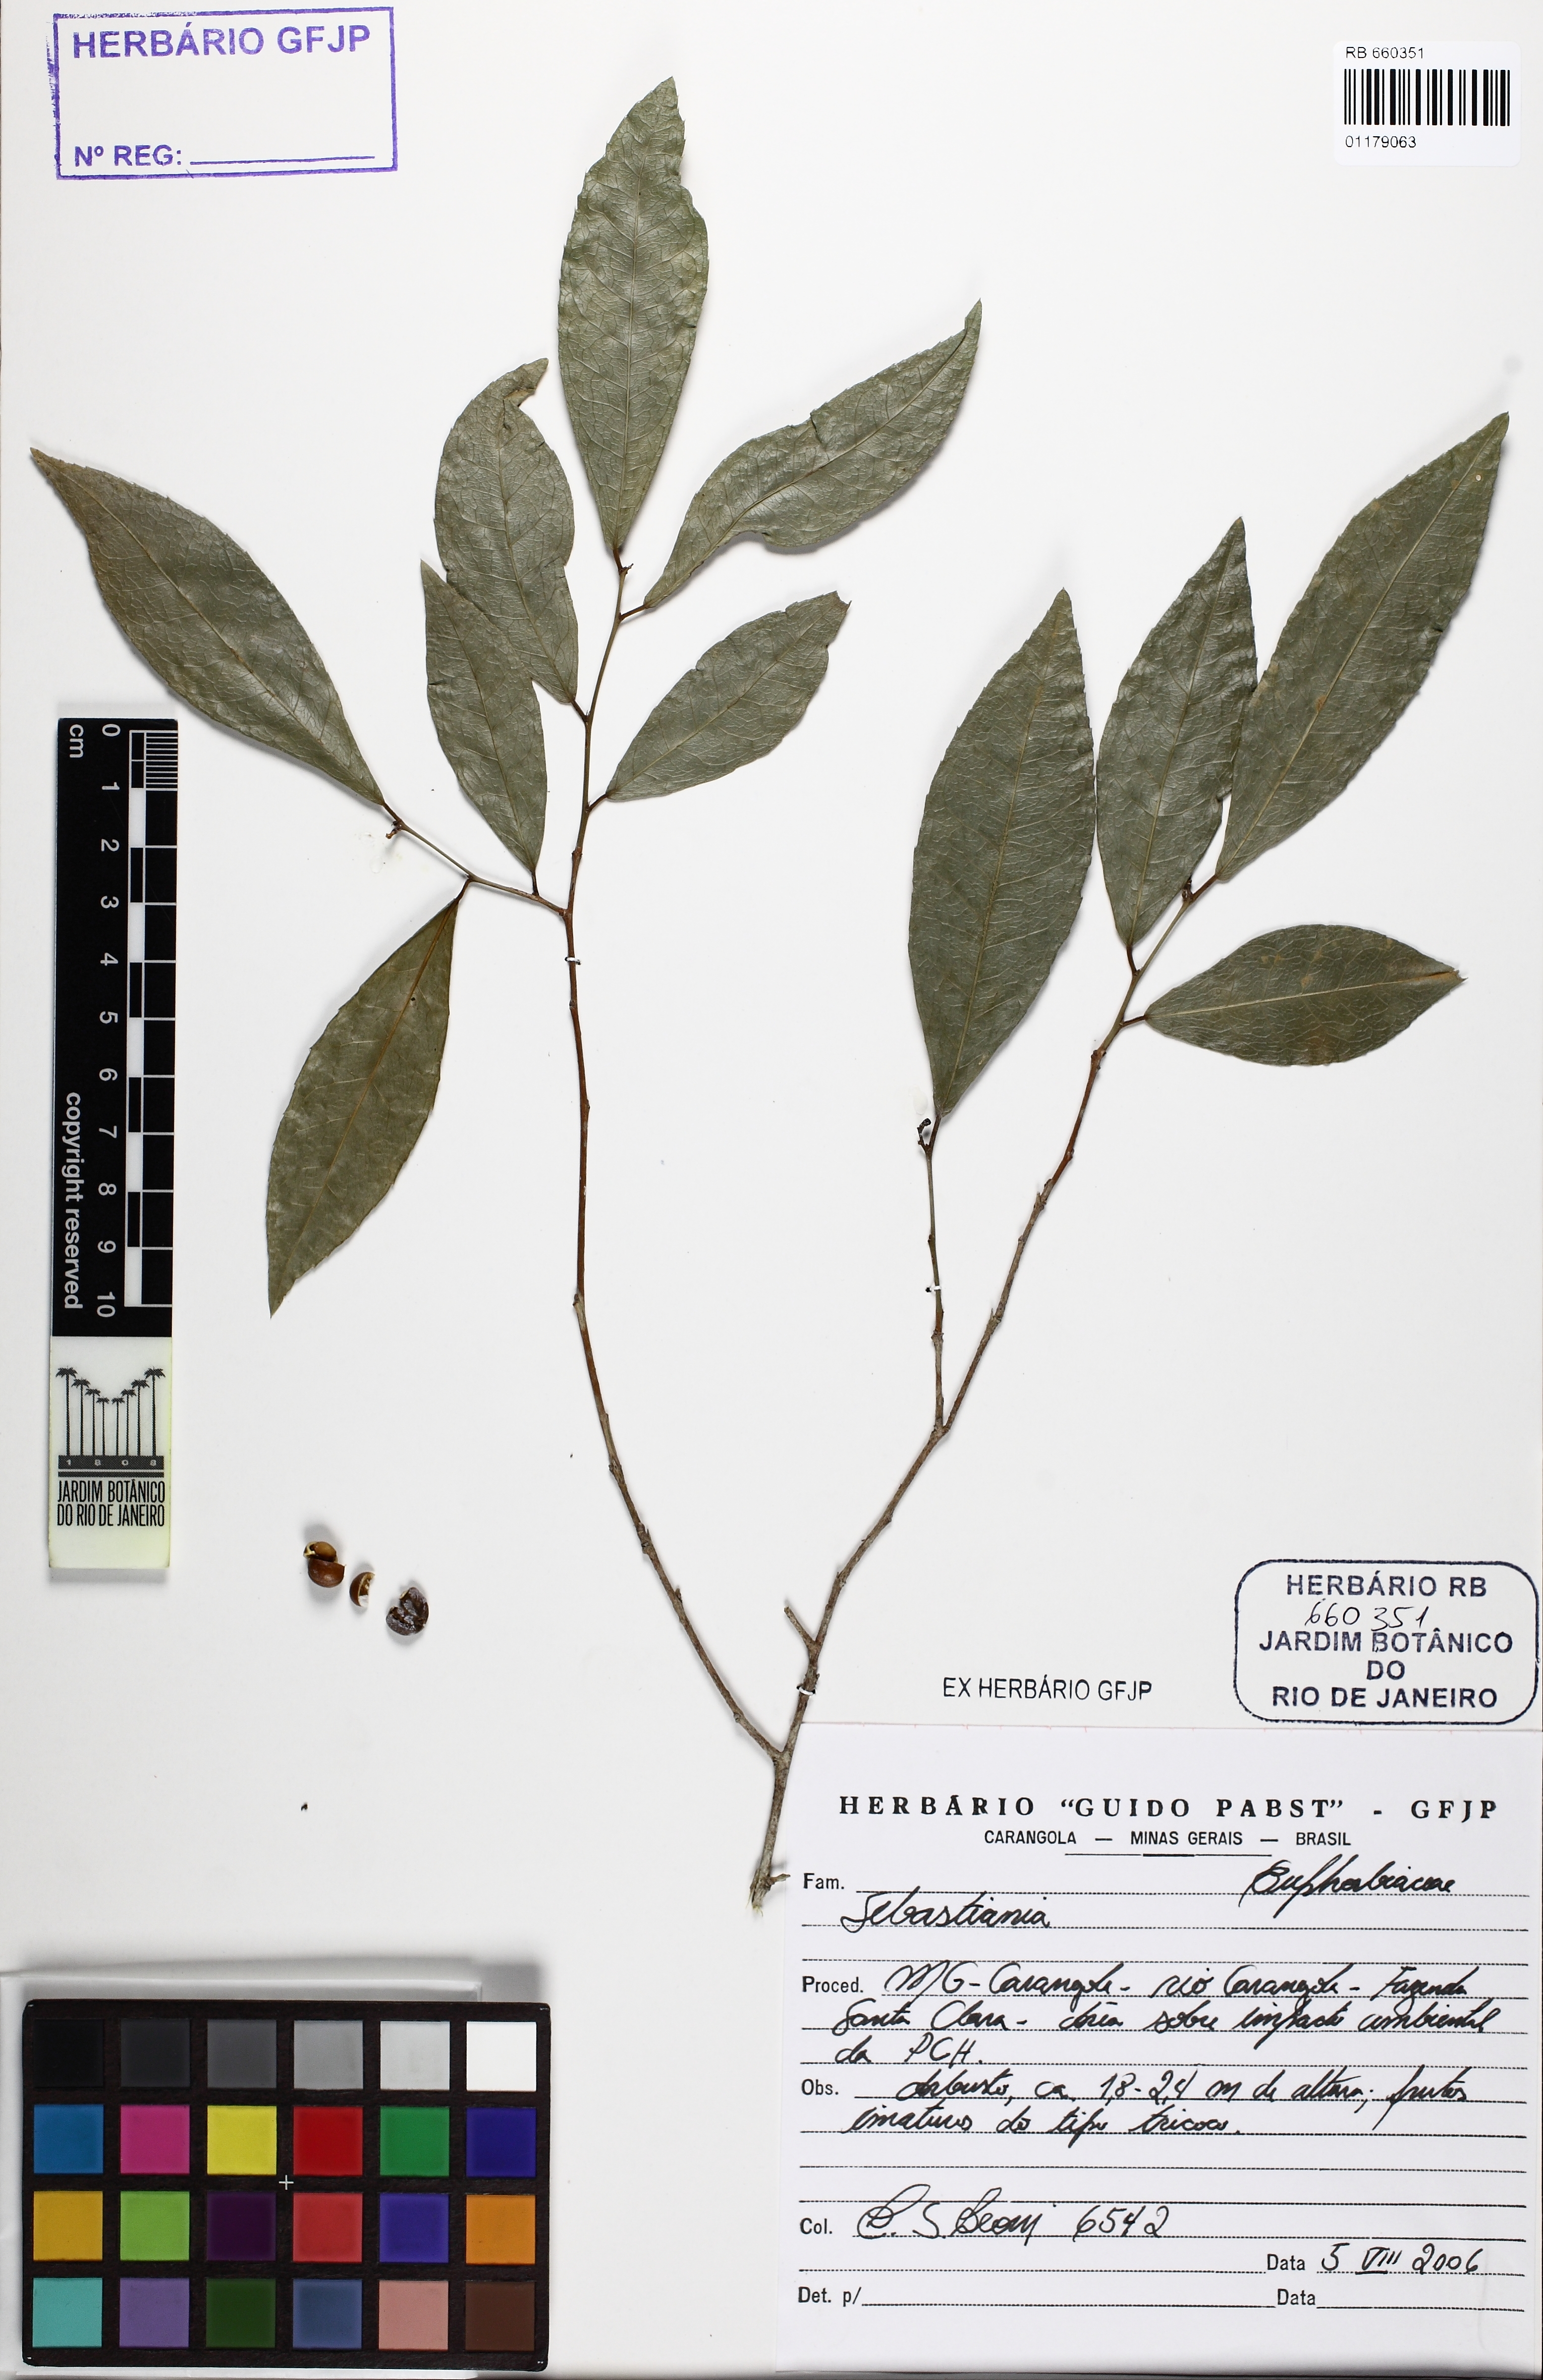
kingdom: Plantae
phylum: Tracheophyta
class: Magnoliopsida
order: Malpighiales
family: Euphorbiaceae
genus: Sebastiania
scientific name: Sebastiania
